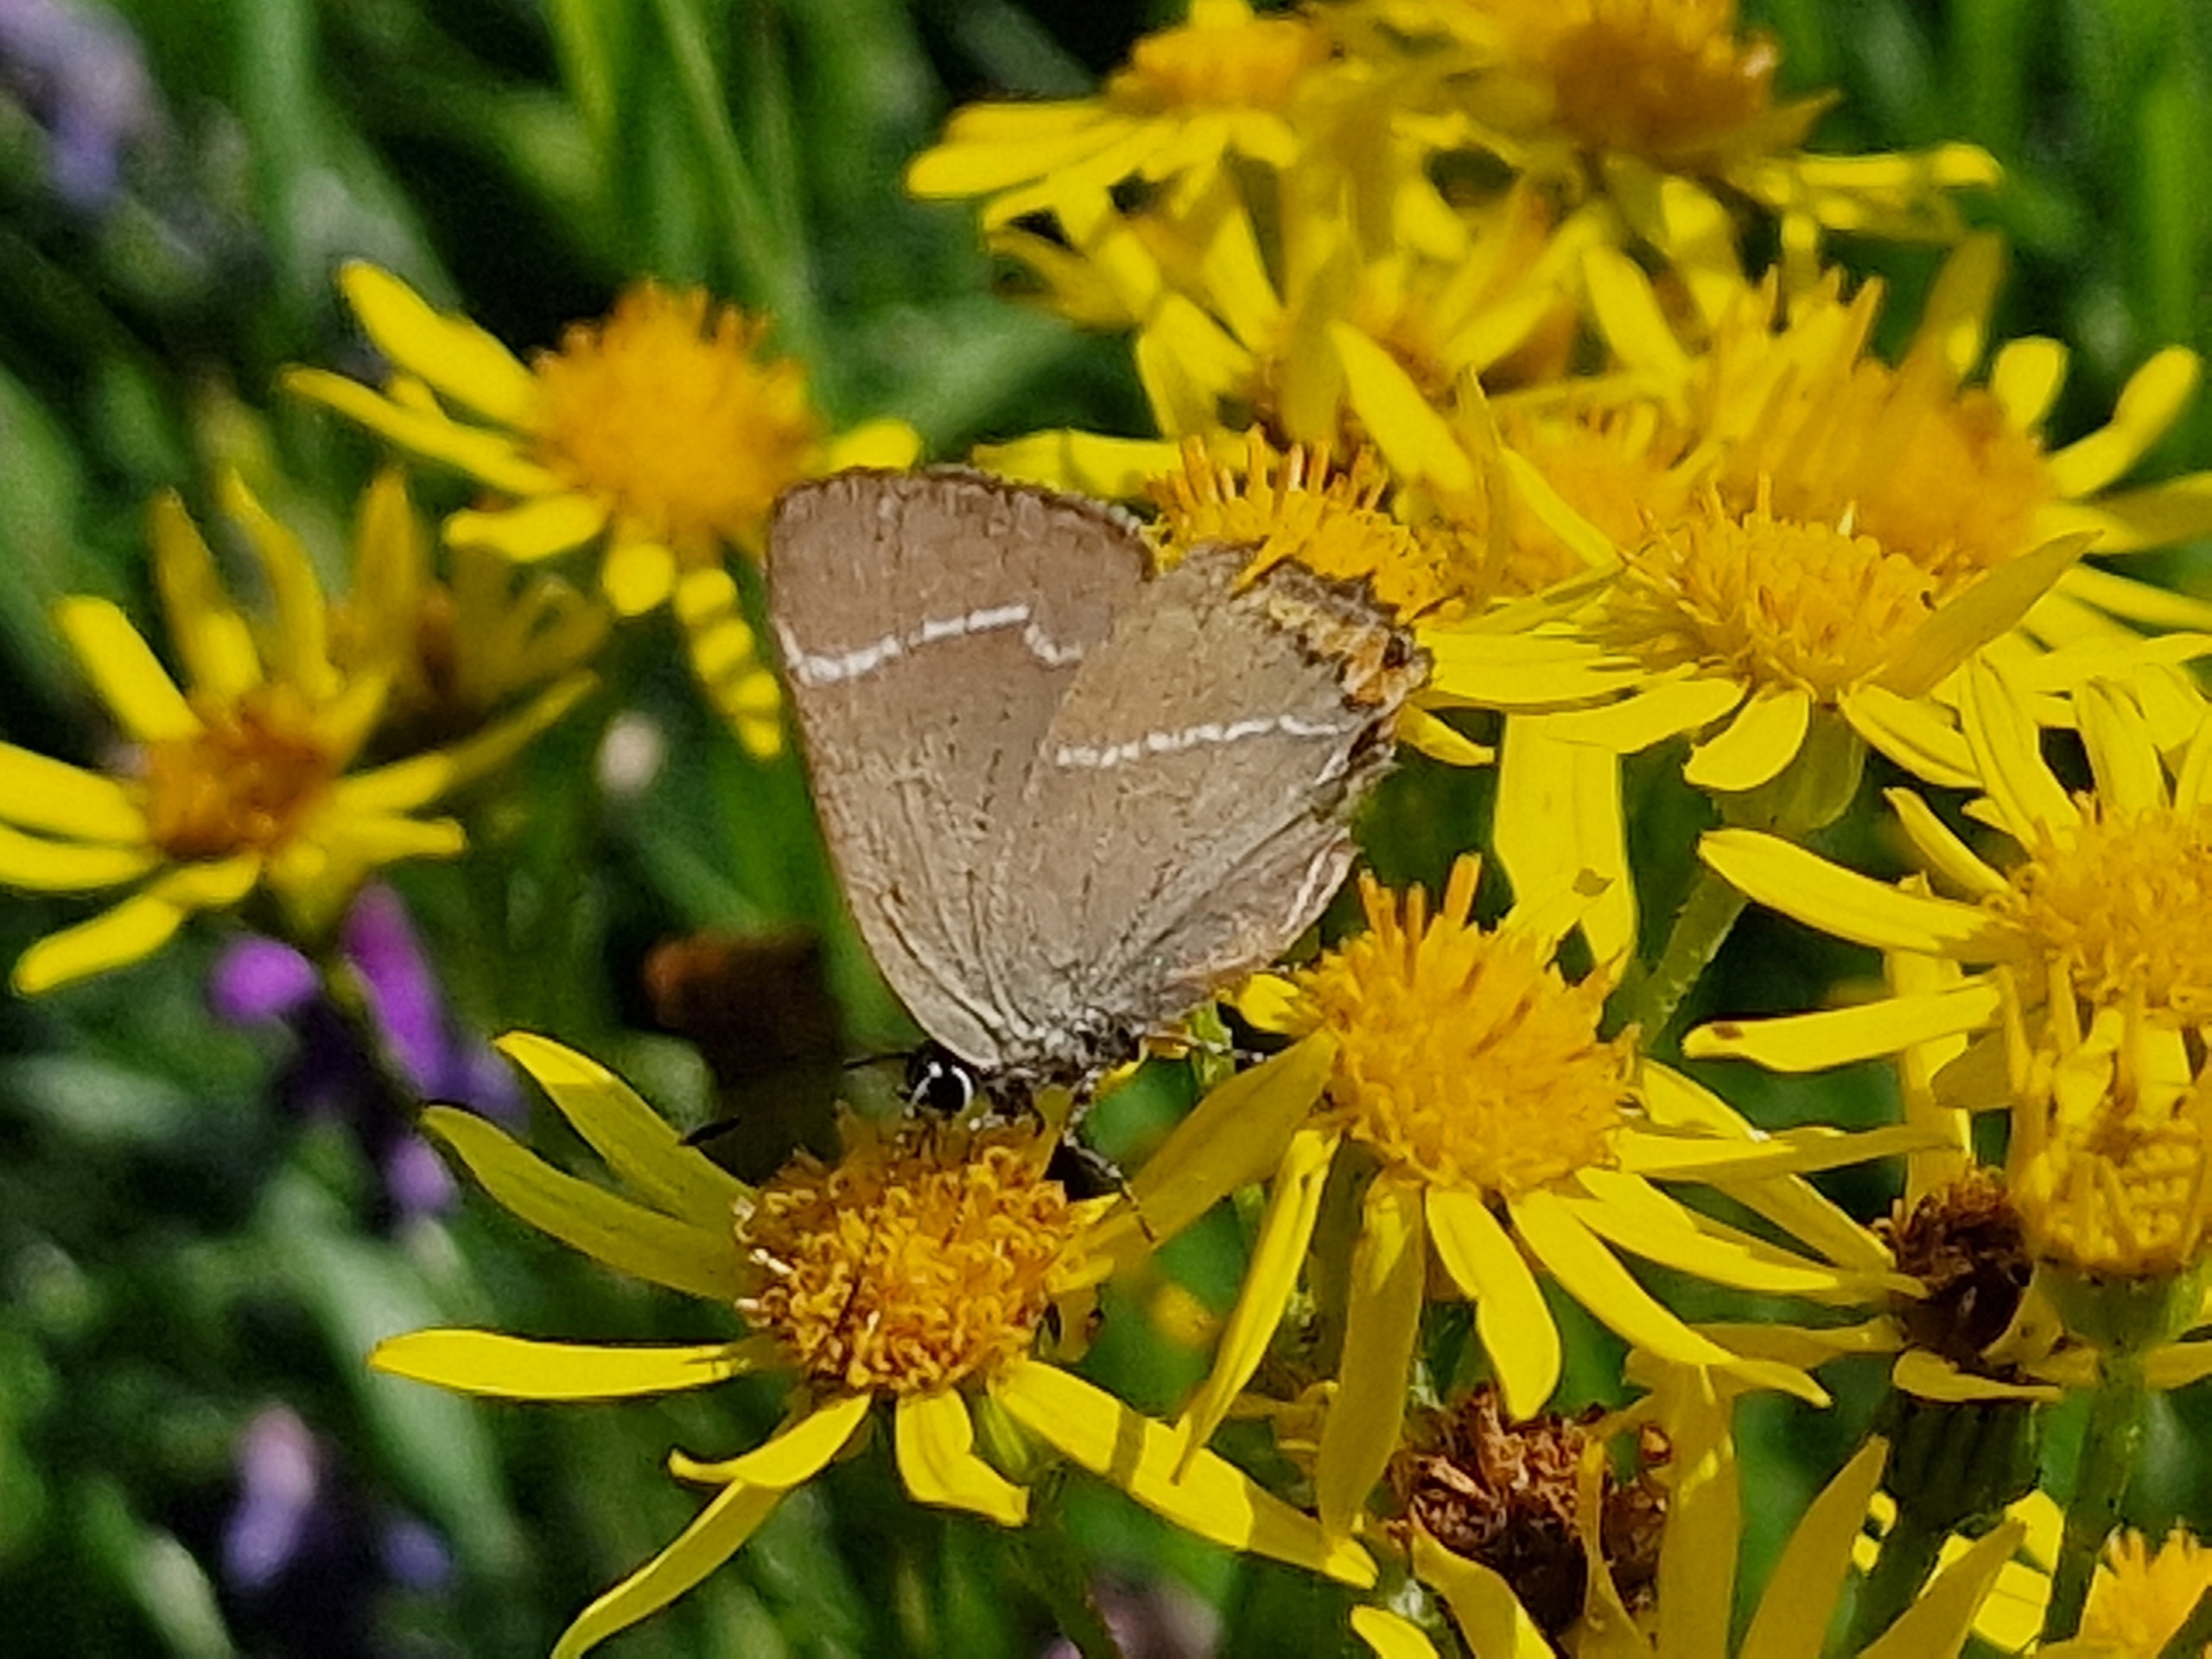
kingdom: Animalia
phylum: Arthropoda
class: Insecta
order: Lepidoptera
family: Lycaenidae
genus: Satyrium
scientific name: Satyrium w-album
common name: Det hvide W
